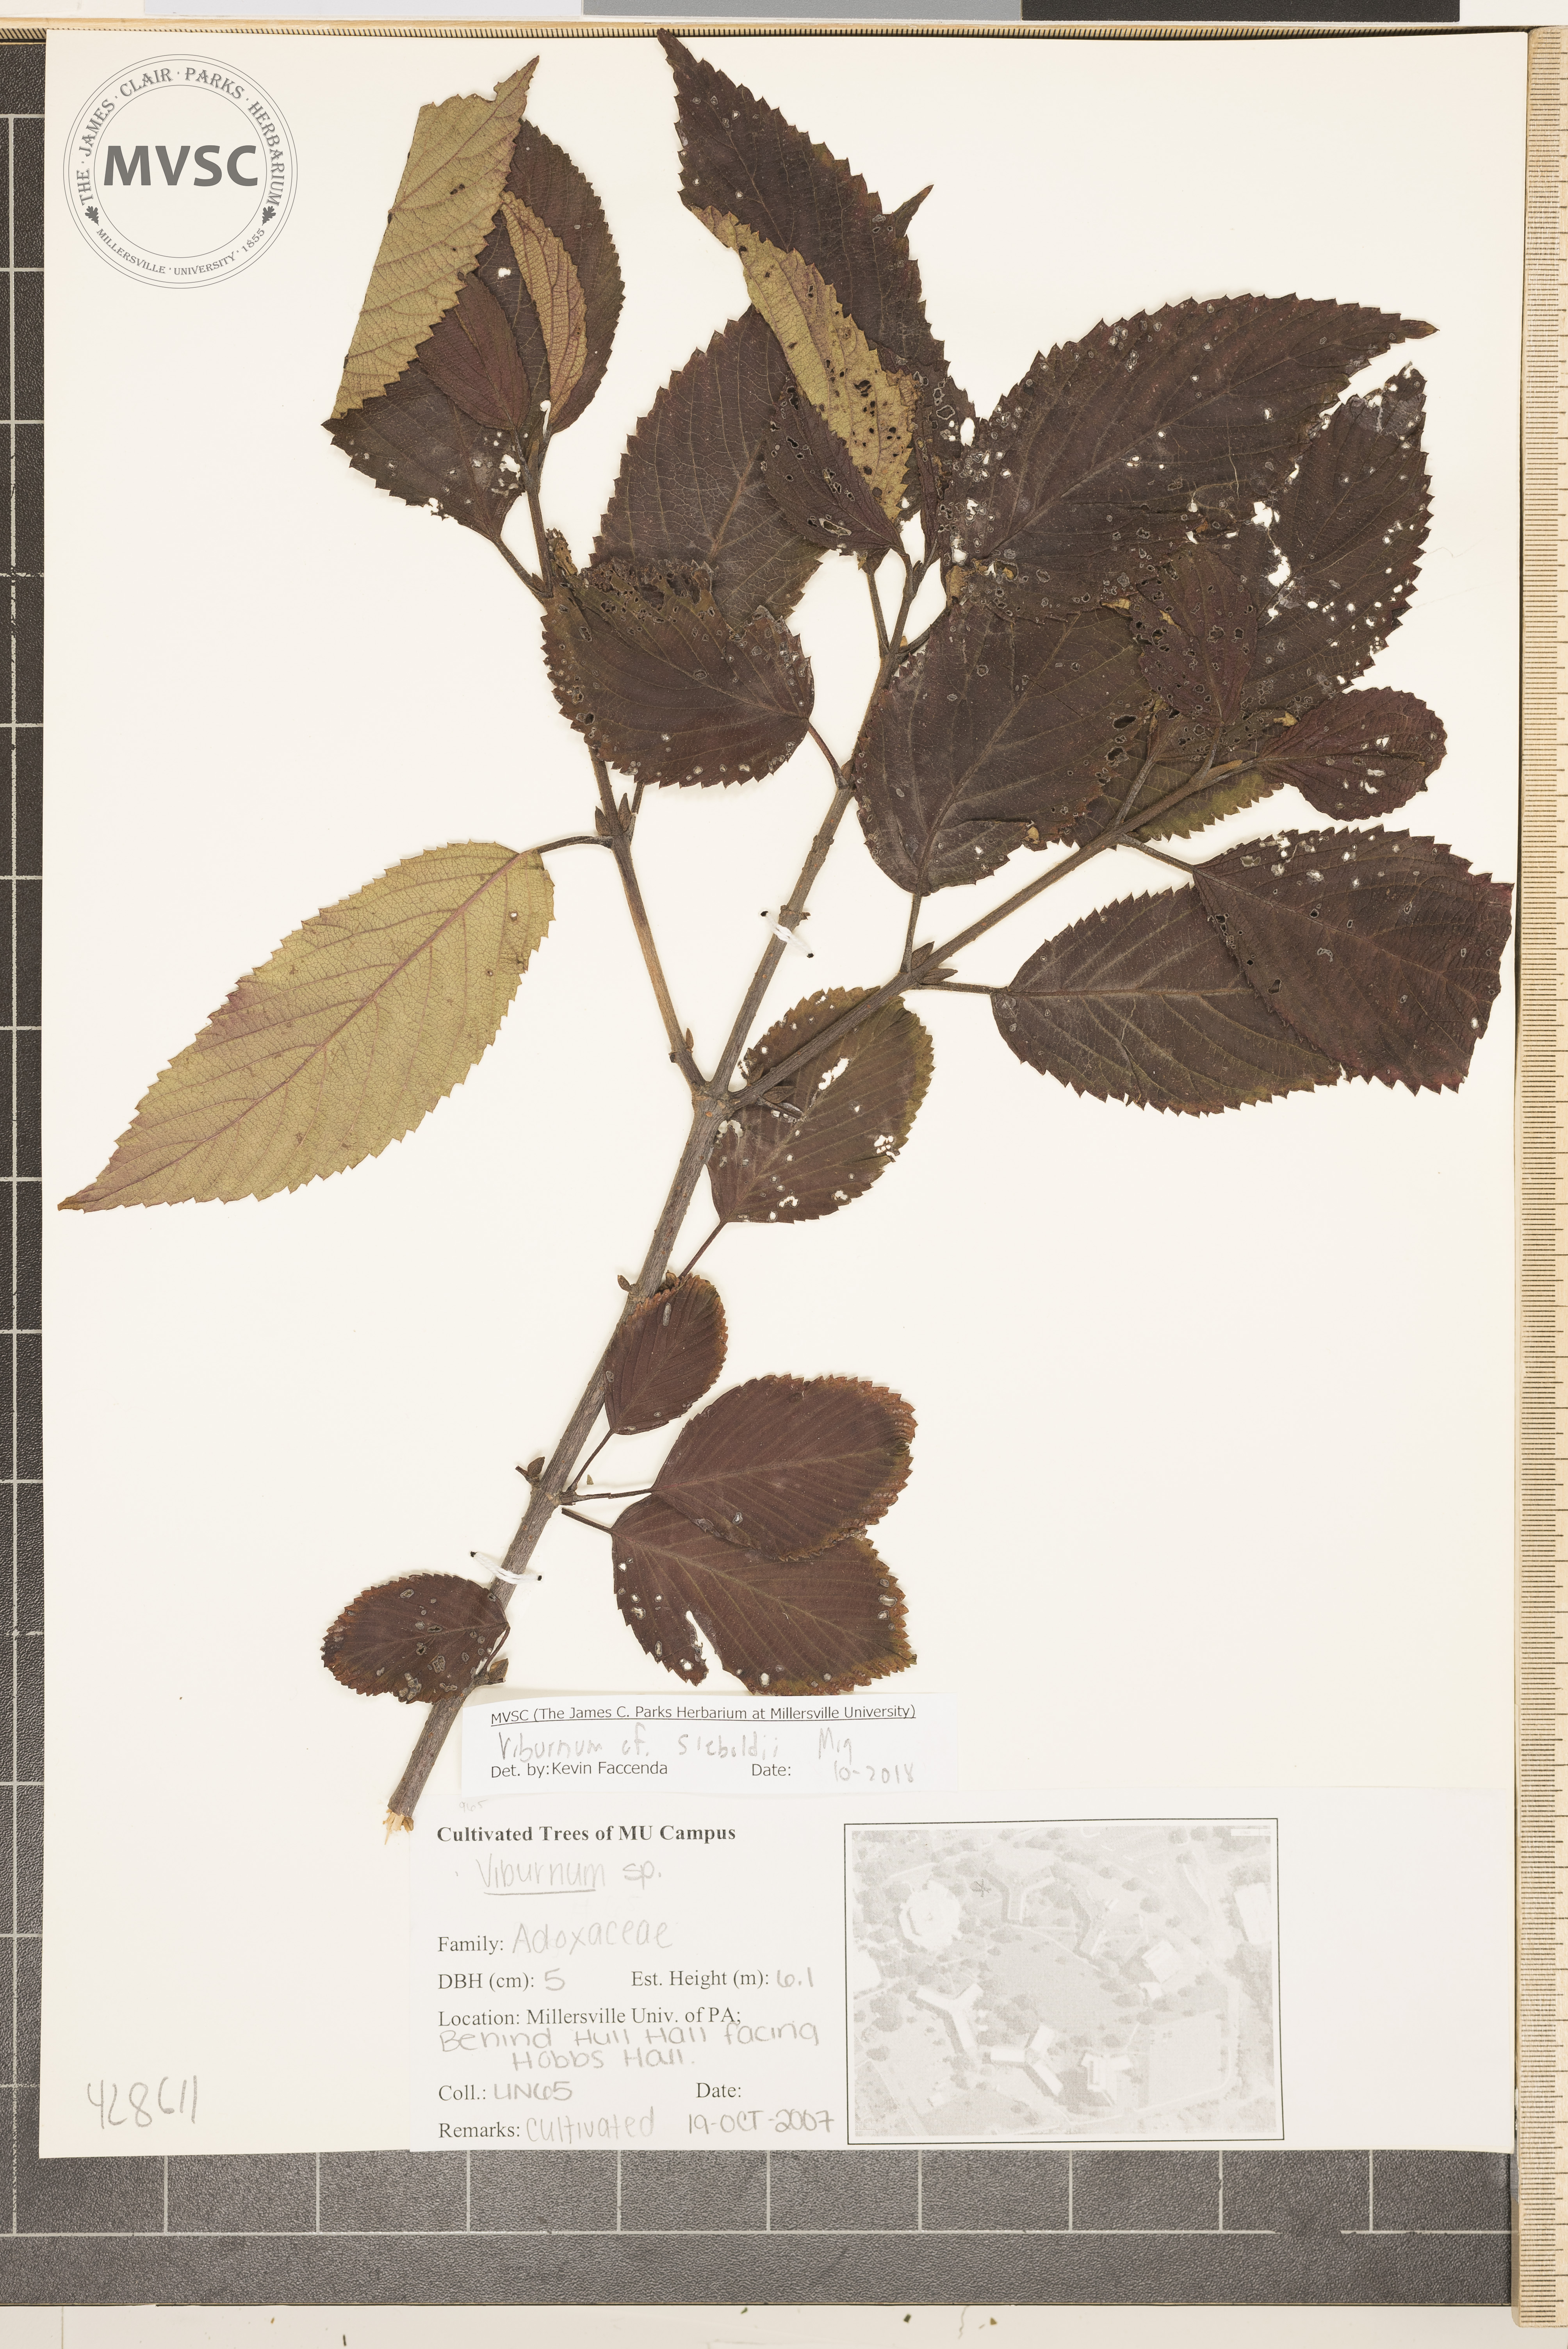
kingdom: Plantae
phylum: Tracheophyta
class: Magnoliopsida
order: Dipsacales
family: Viburnaceae
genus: Viburnum
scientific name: Viburnum sieboldii
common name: Viburnum
